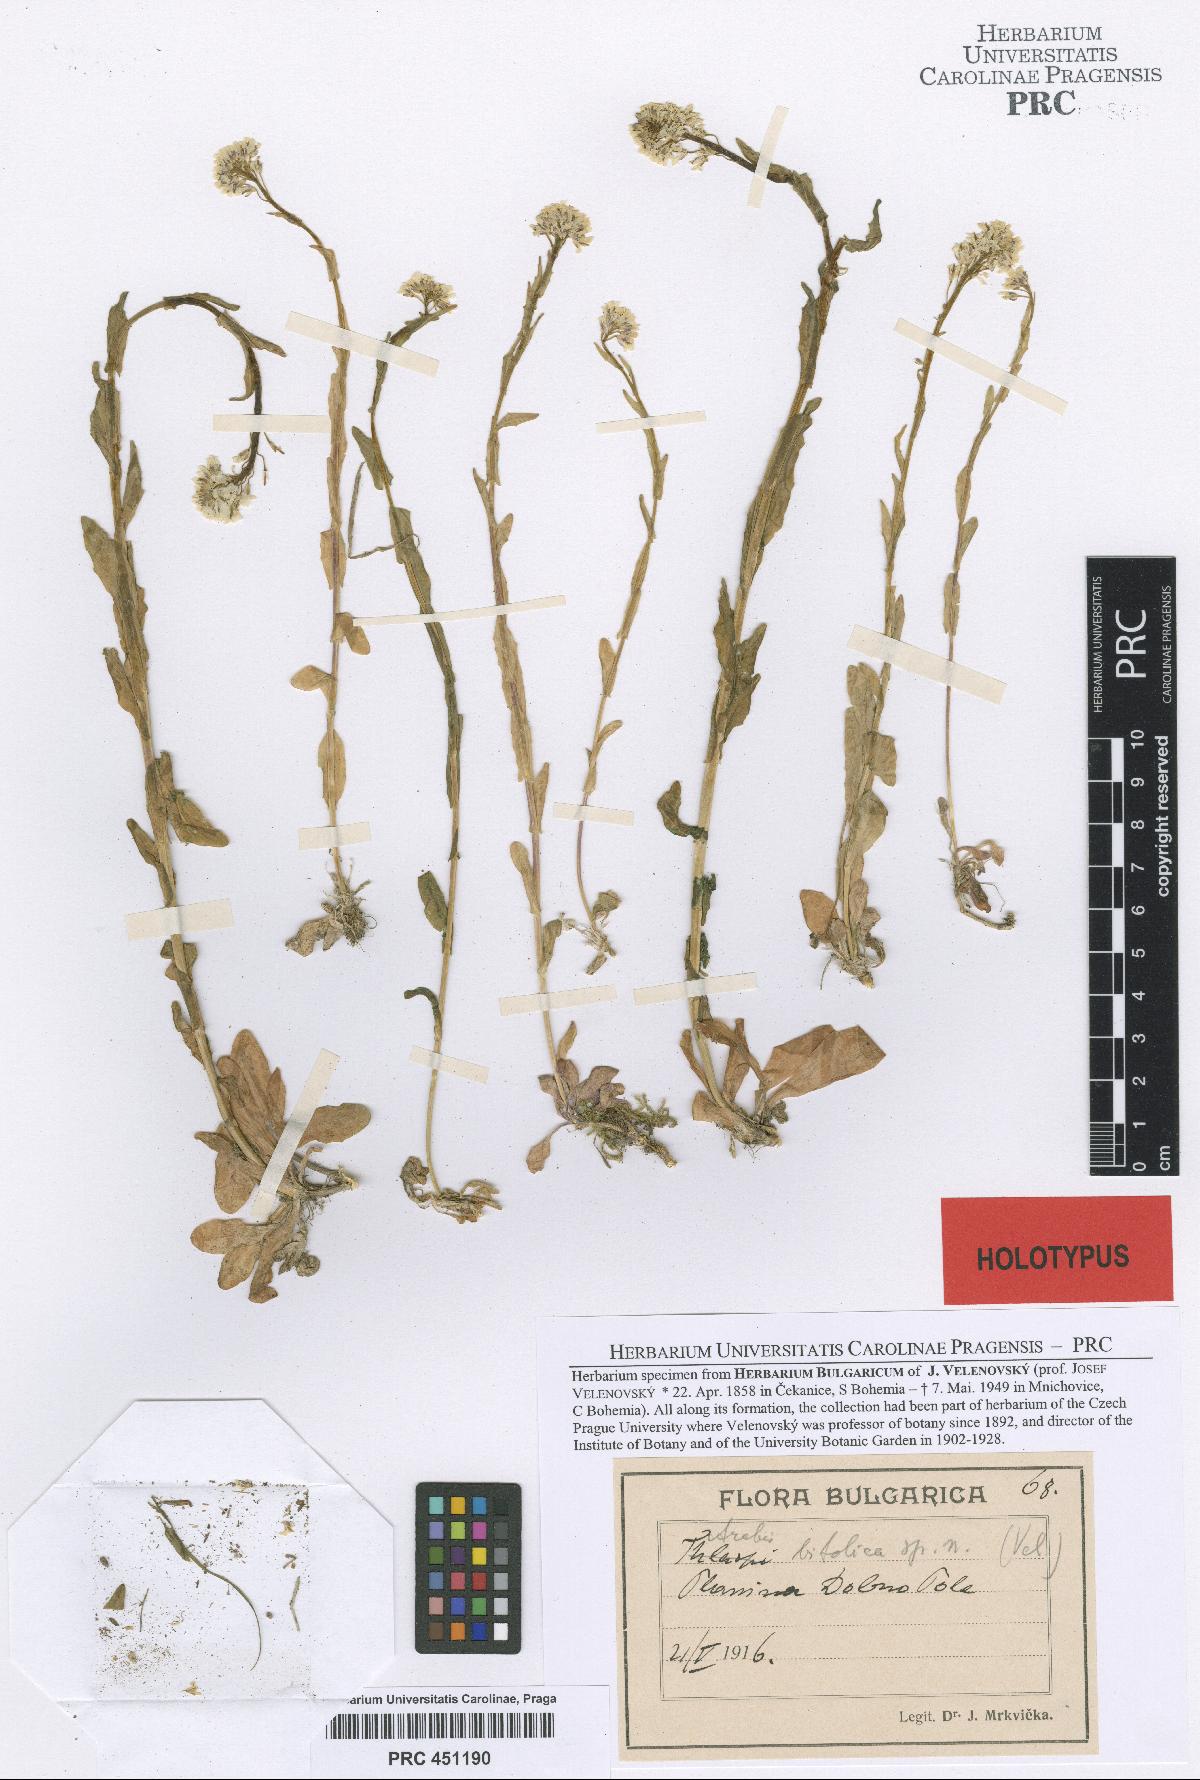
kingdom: Plantae
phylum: Tracheophyta
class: Magnoliopsida
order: Brassicales
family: Brassicaceae
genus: Arabis
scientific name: Arabis sudetica
